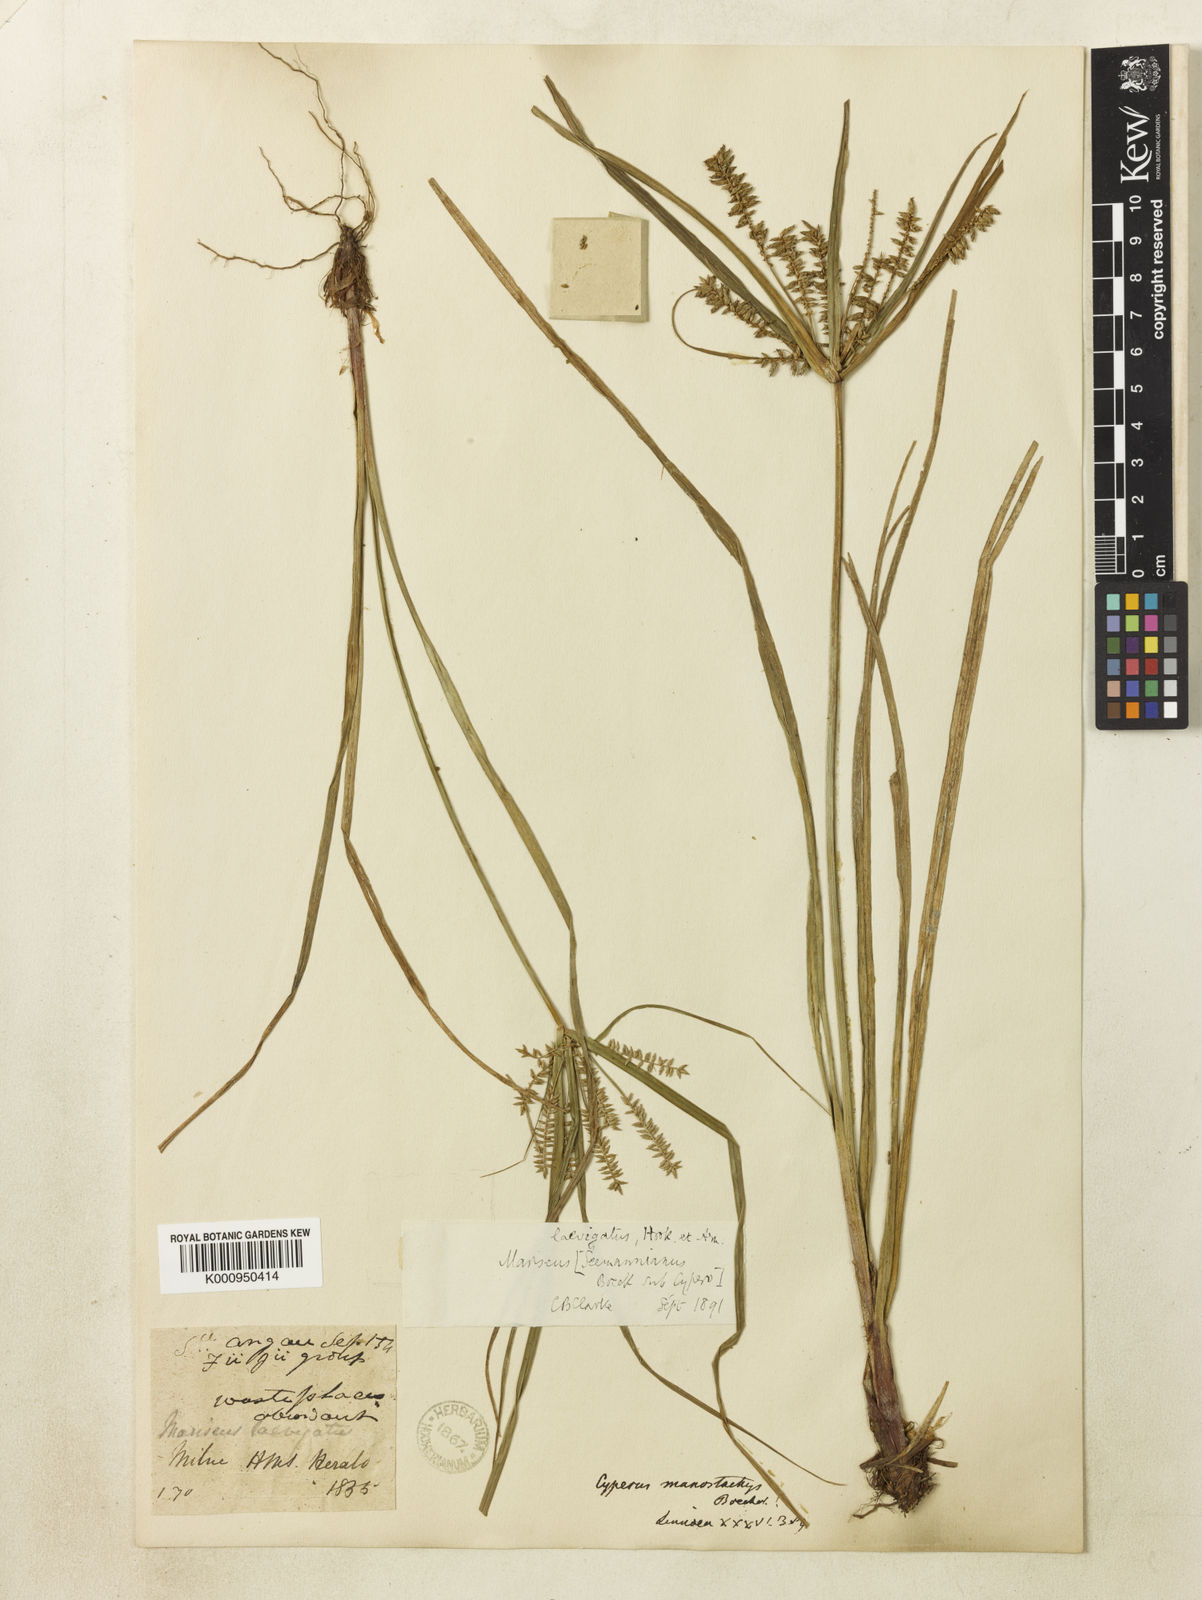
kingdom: Plantae
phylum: Tracheophyta
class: Liliopsida
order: Poales
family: Cyperaceae
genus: Cyperus
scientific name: Cyperus seemannianus
